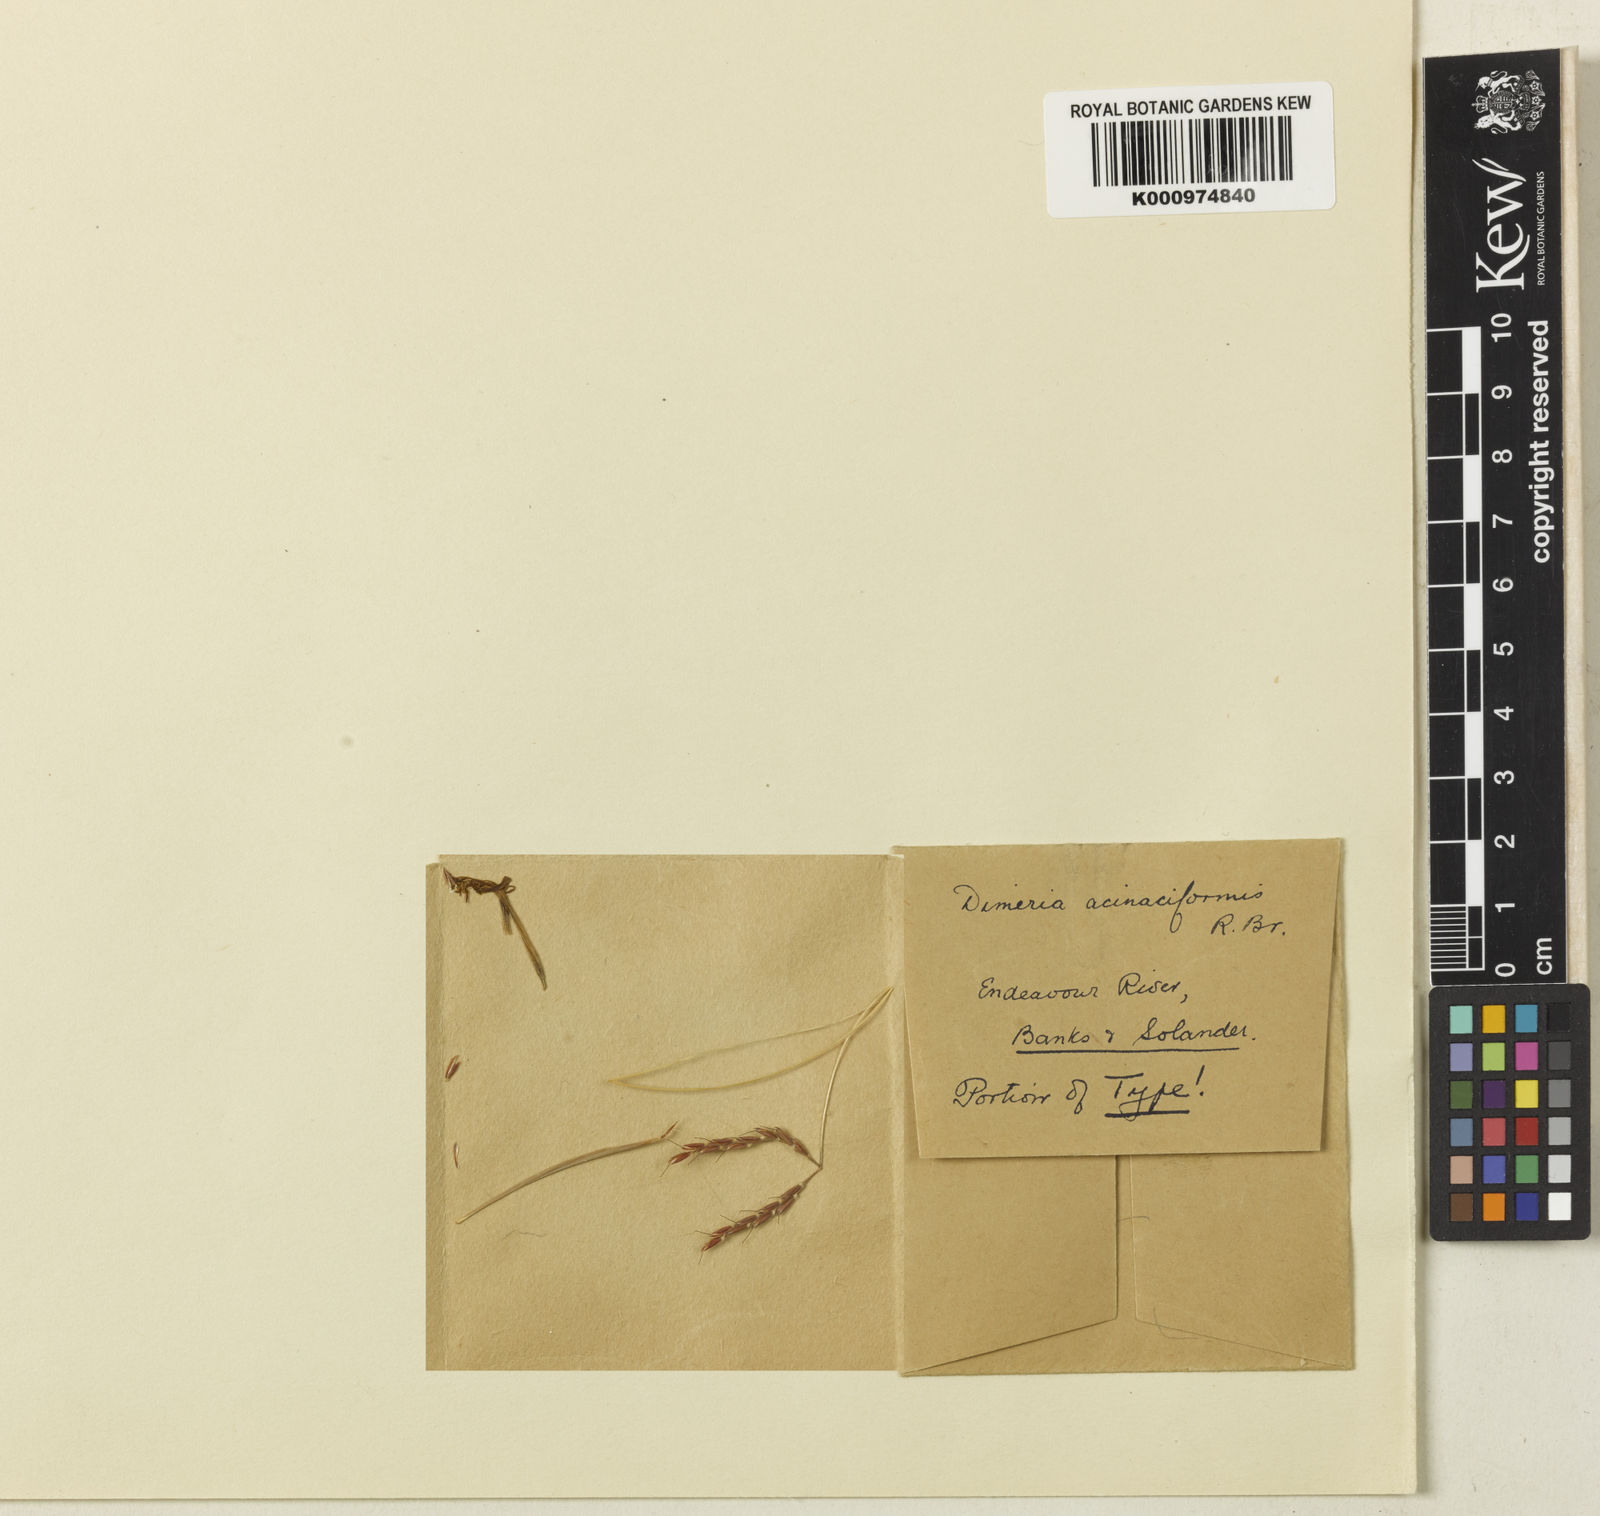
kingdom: Plantae
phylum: Tracheophyta
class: Liliopsida
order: Poales
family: Poaceae
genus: Dimeria
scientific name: Dimeria acinaciformis
